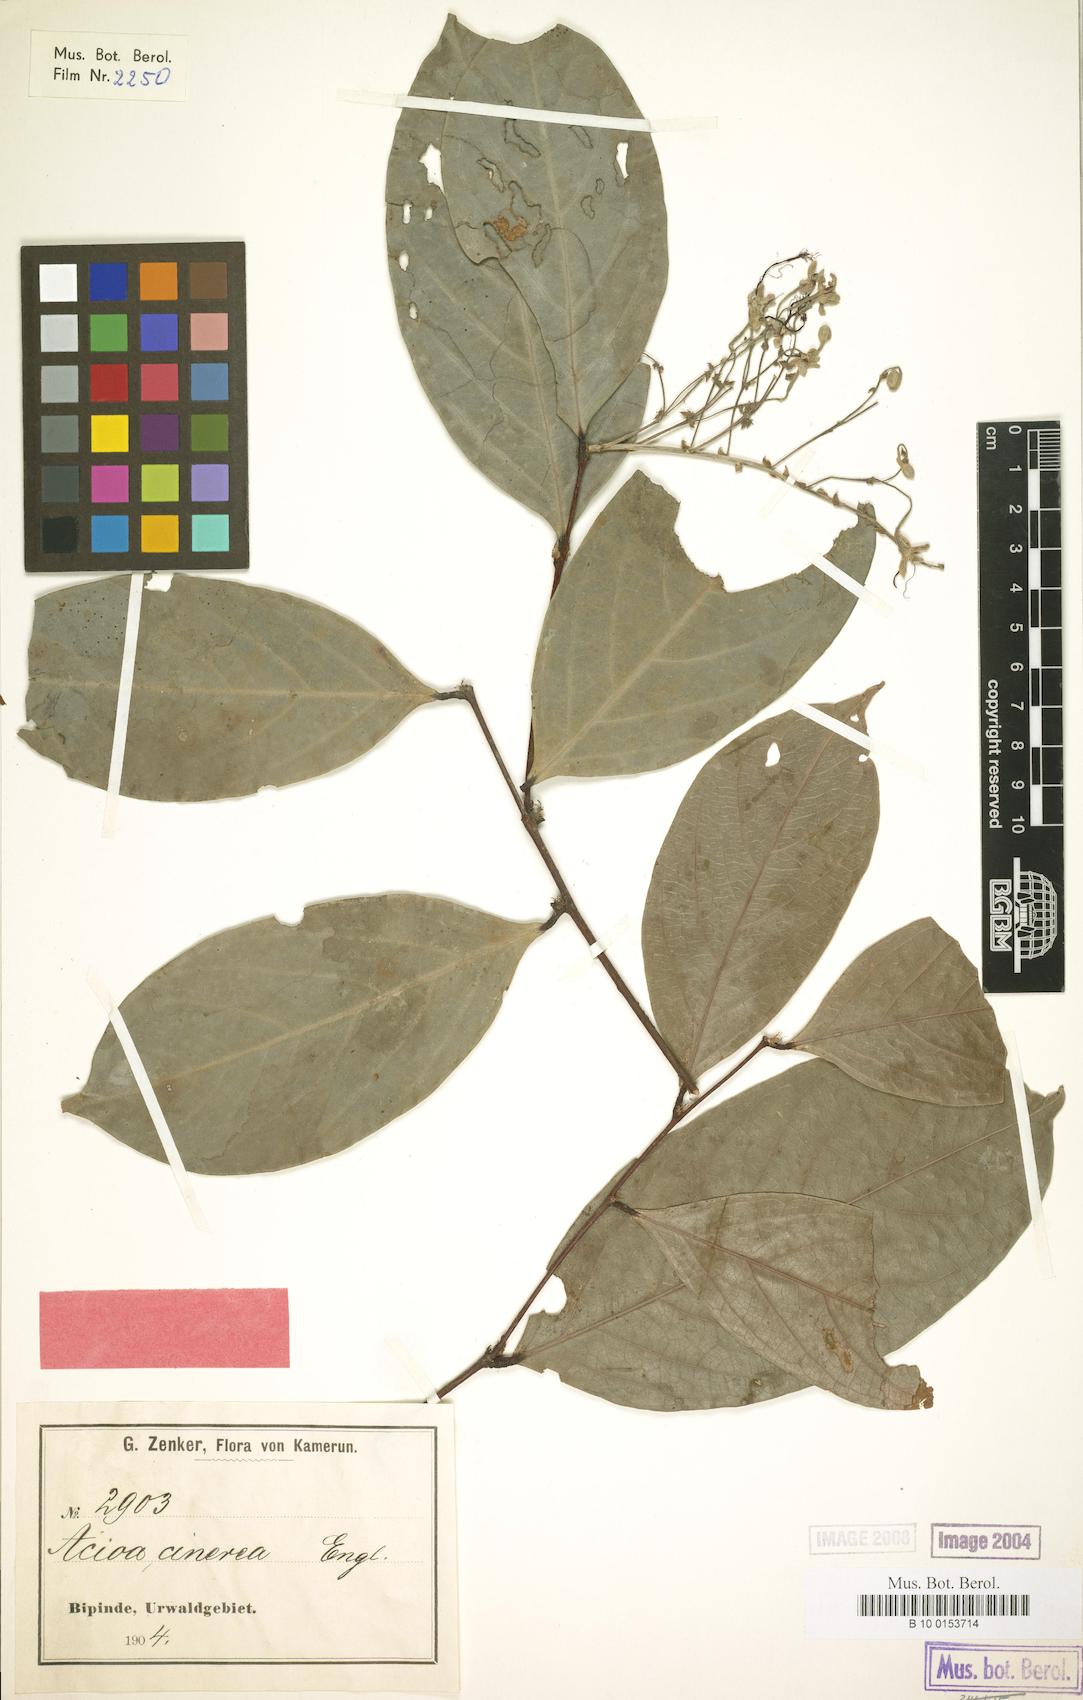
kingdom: Plantae
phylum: Tracheophyta
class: Magnoliopsida
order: Malpighiales
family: Chrysobalanaceae
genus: Dactyladenia
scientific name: Dactyladenia cinerea
